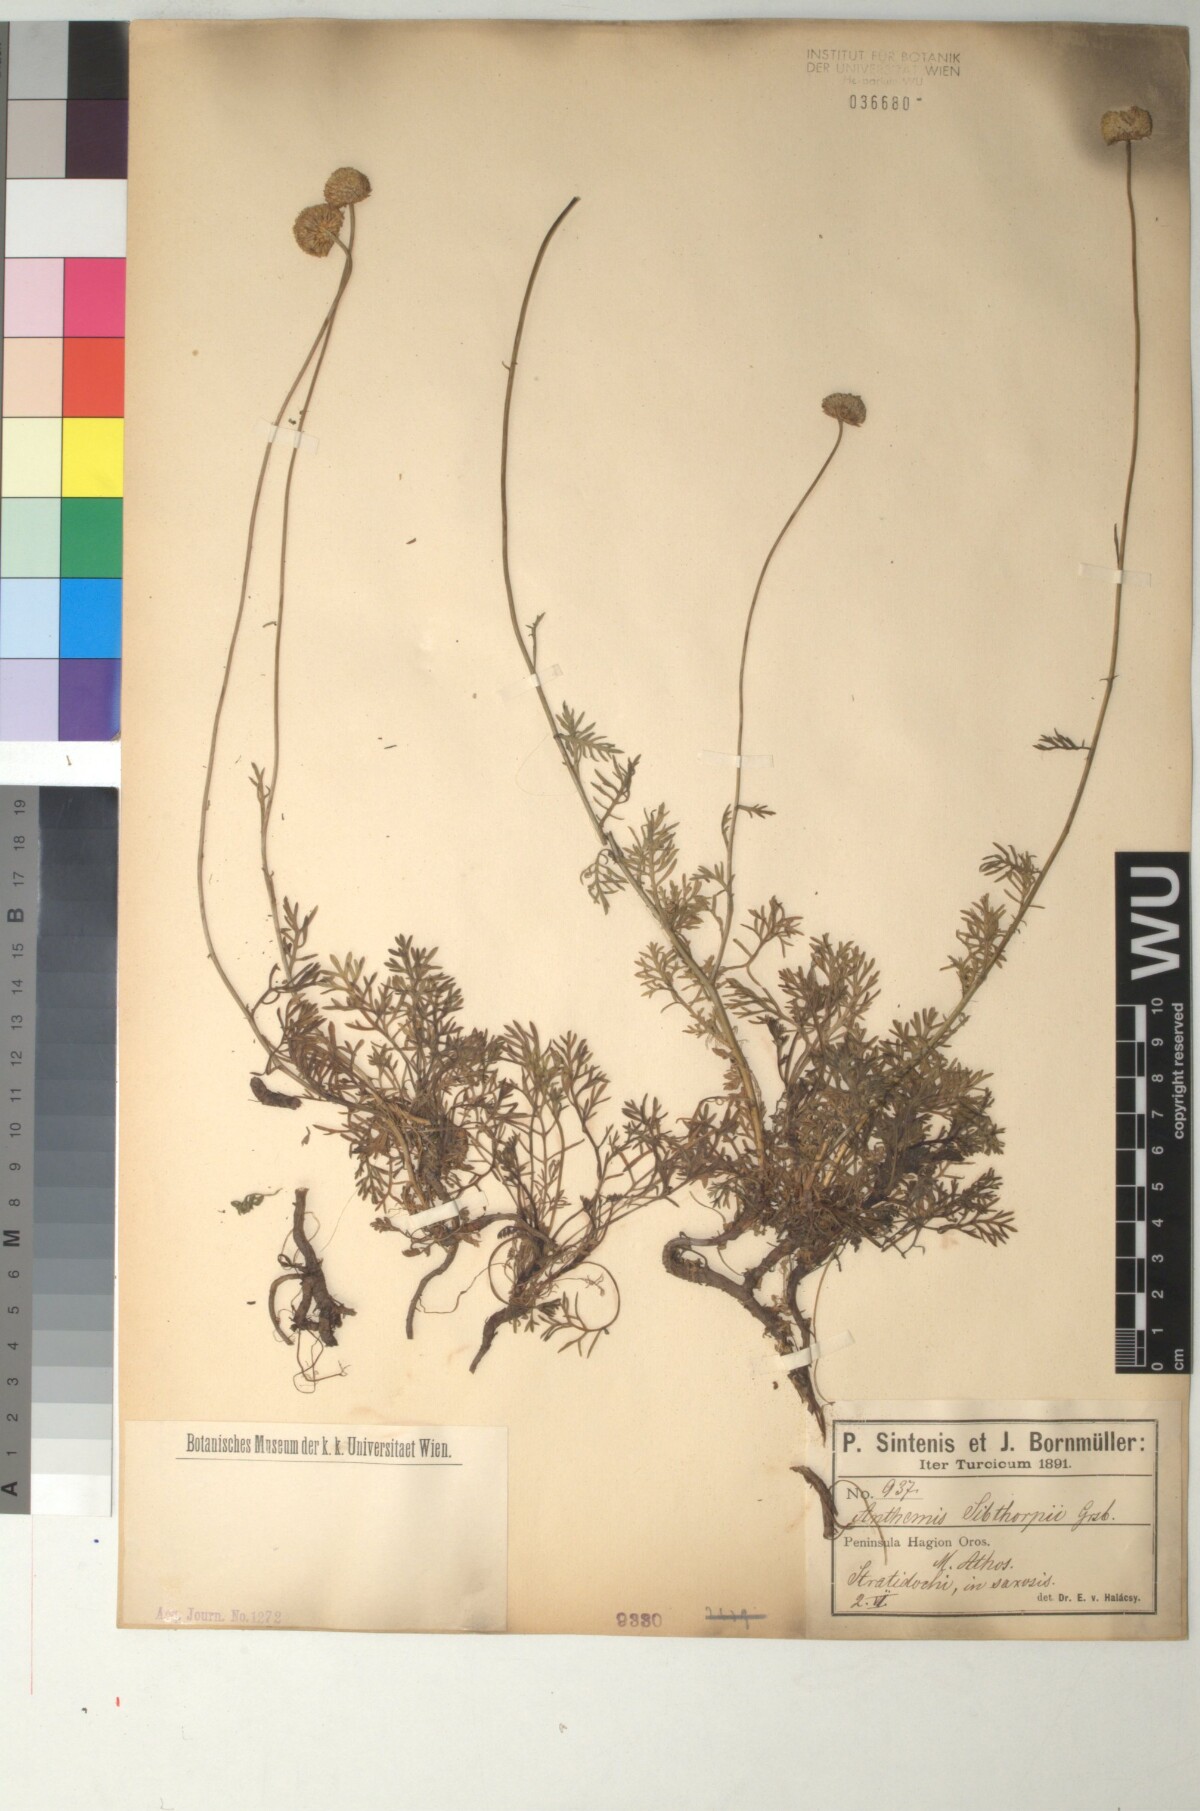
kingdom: Plantae
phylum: Tracheophyta
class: Magnoliopsida
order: Asterales
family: Asteraceae
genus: Anthemis
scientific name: Anthemis sibthorpii
